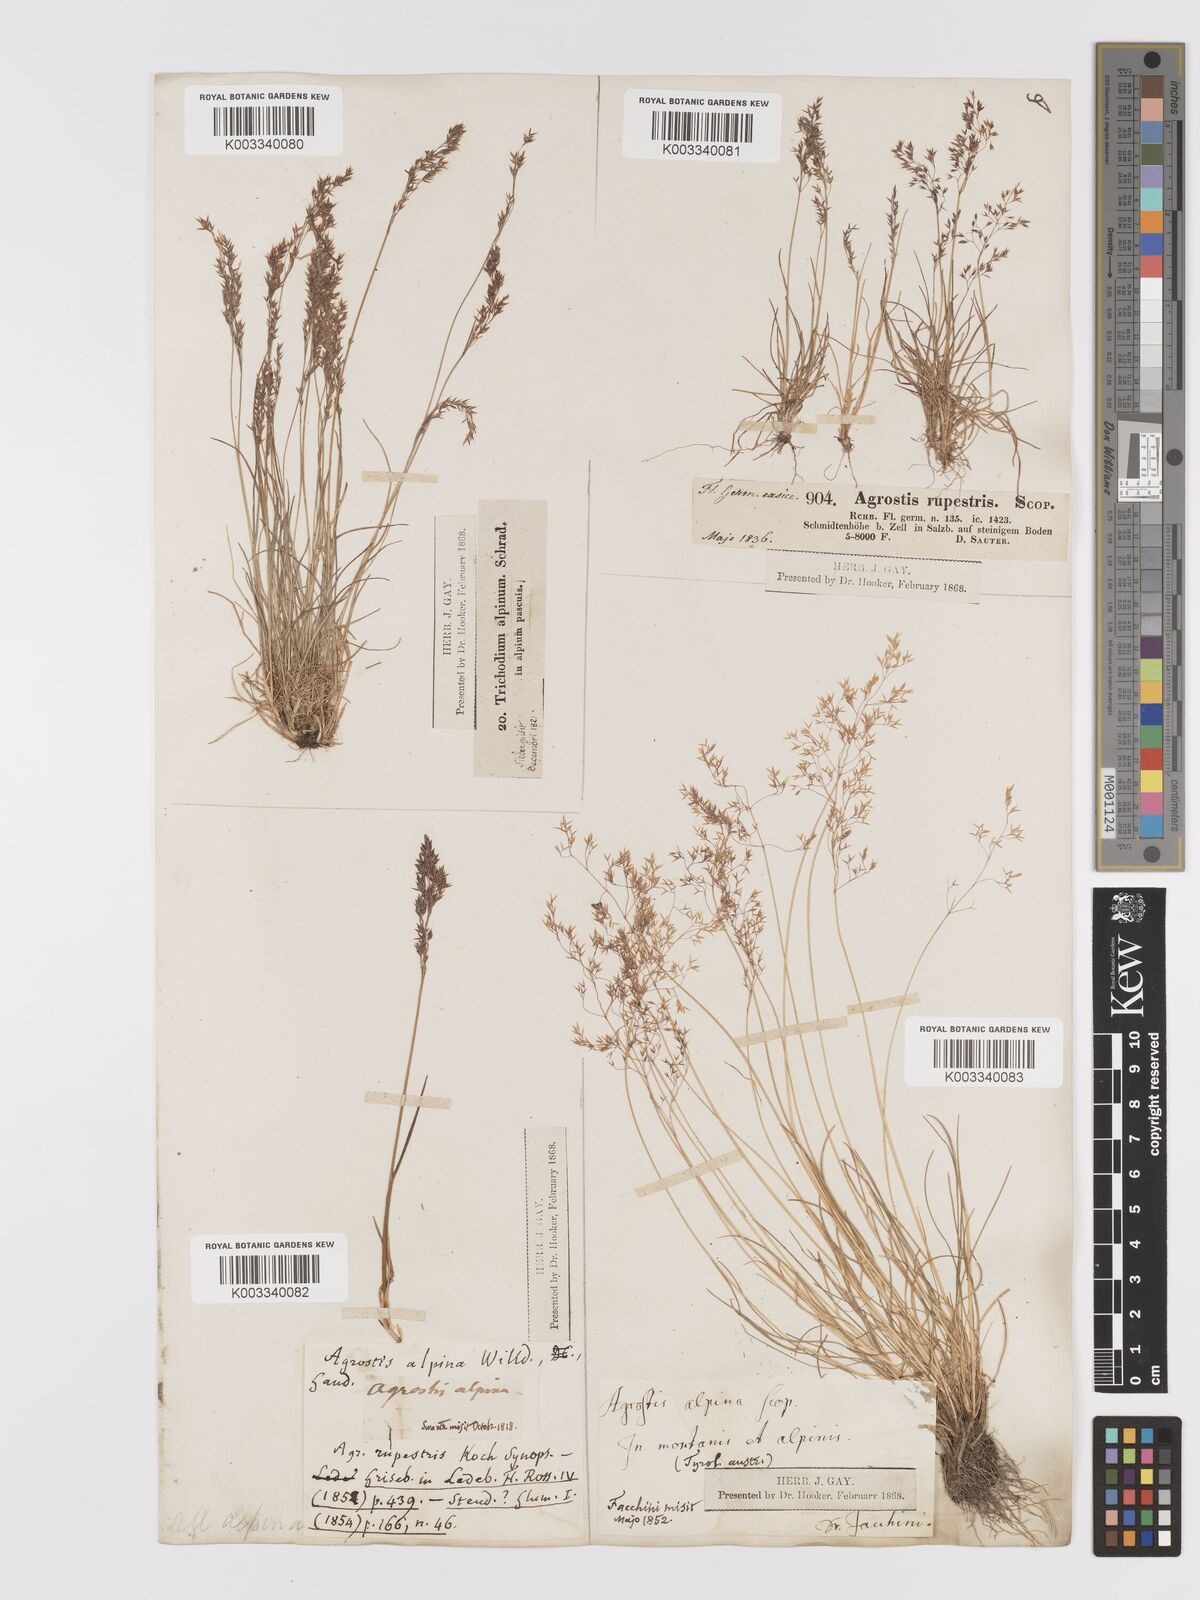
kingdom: Plantae
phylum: Tracheophyta
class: Liliopsida
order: Poales
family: Poaceae
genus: Agrostis
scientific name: Agrostis rupestris
